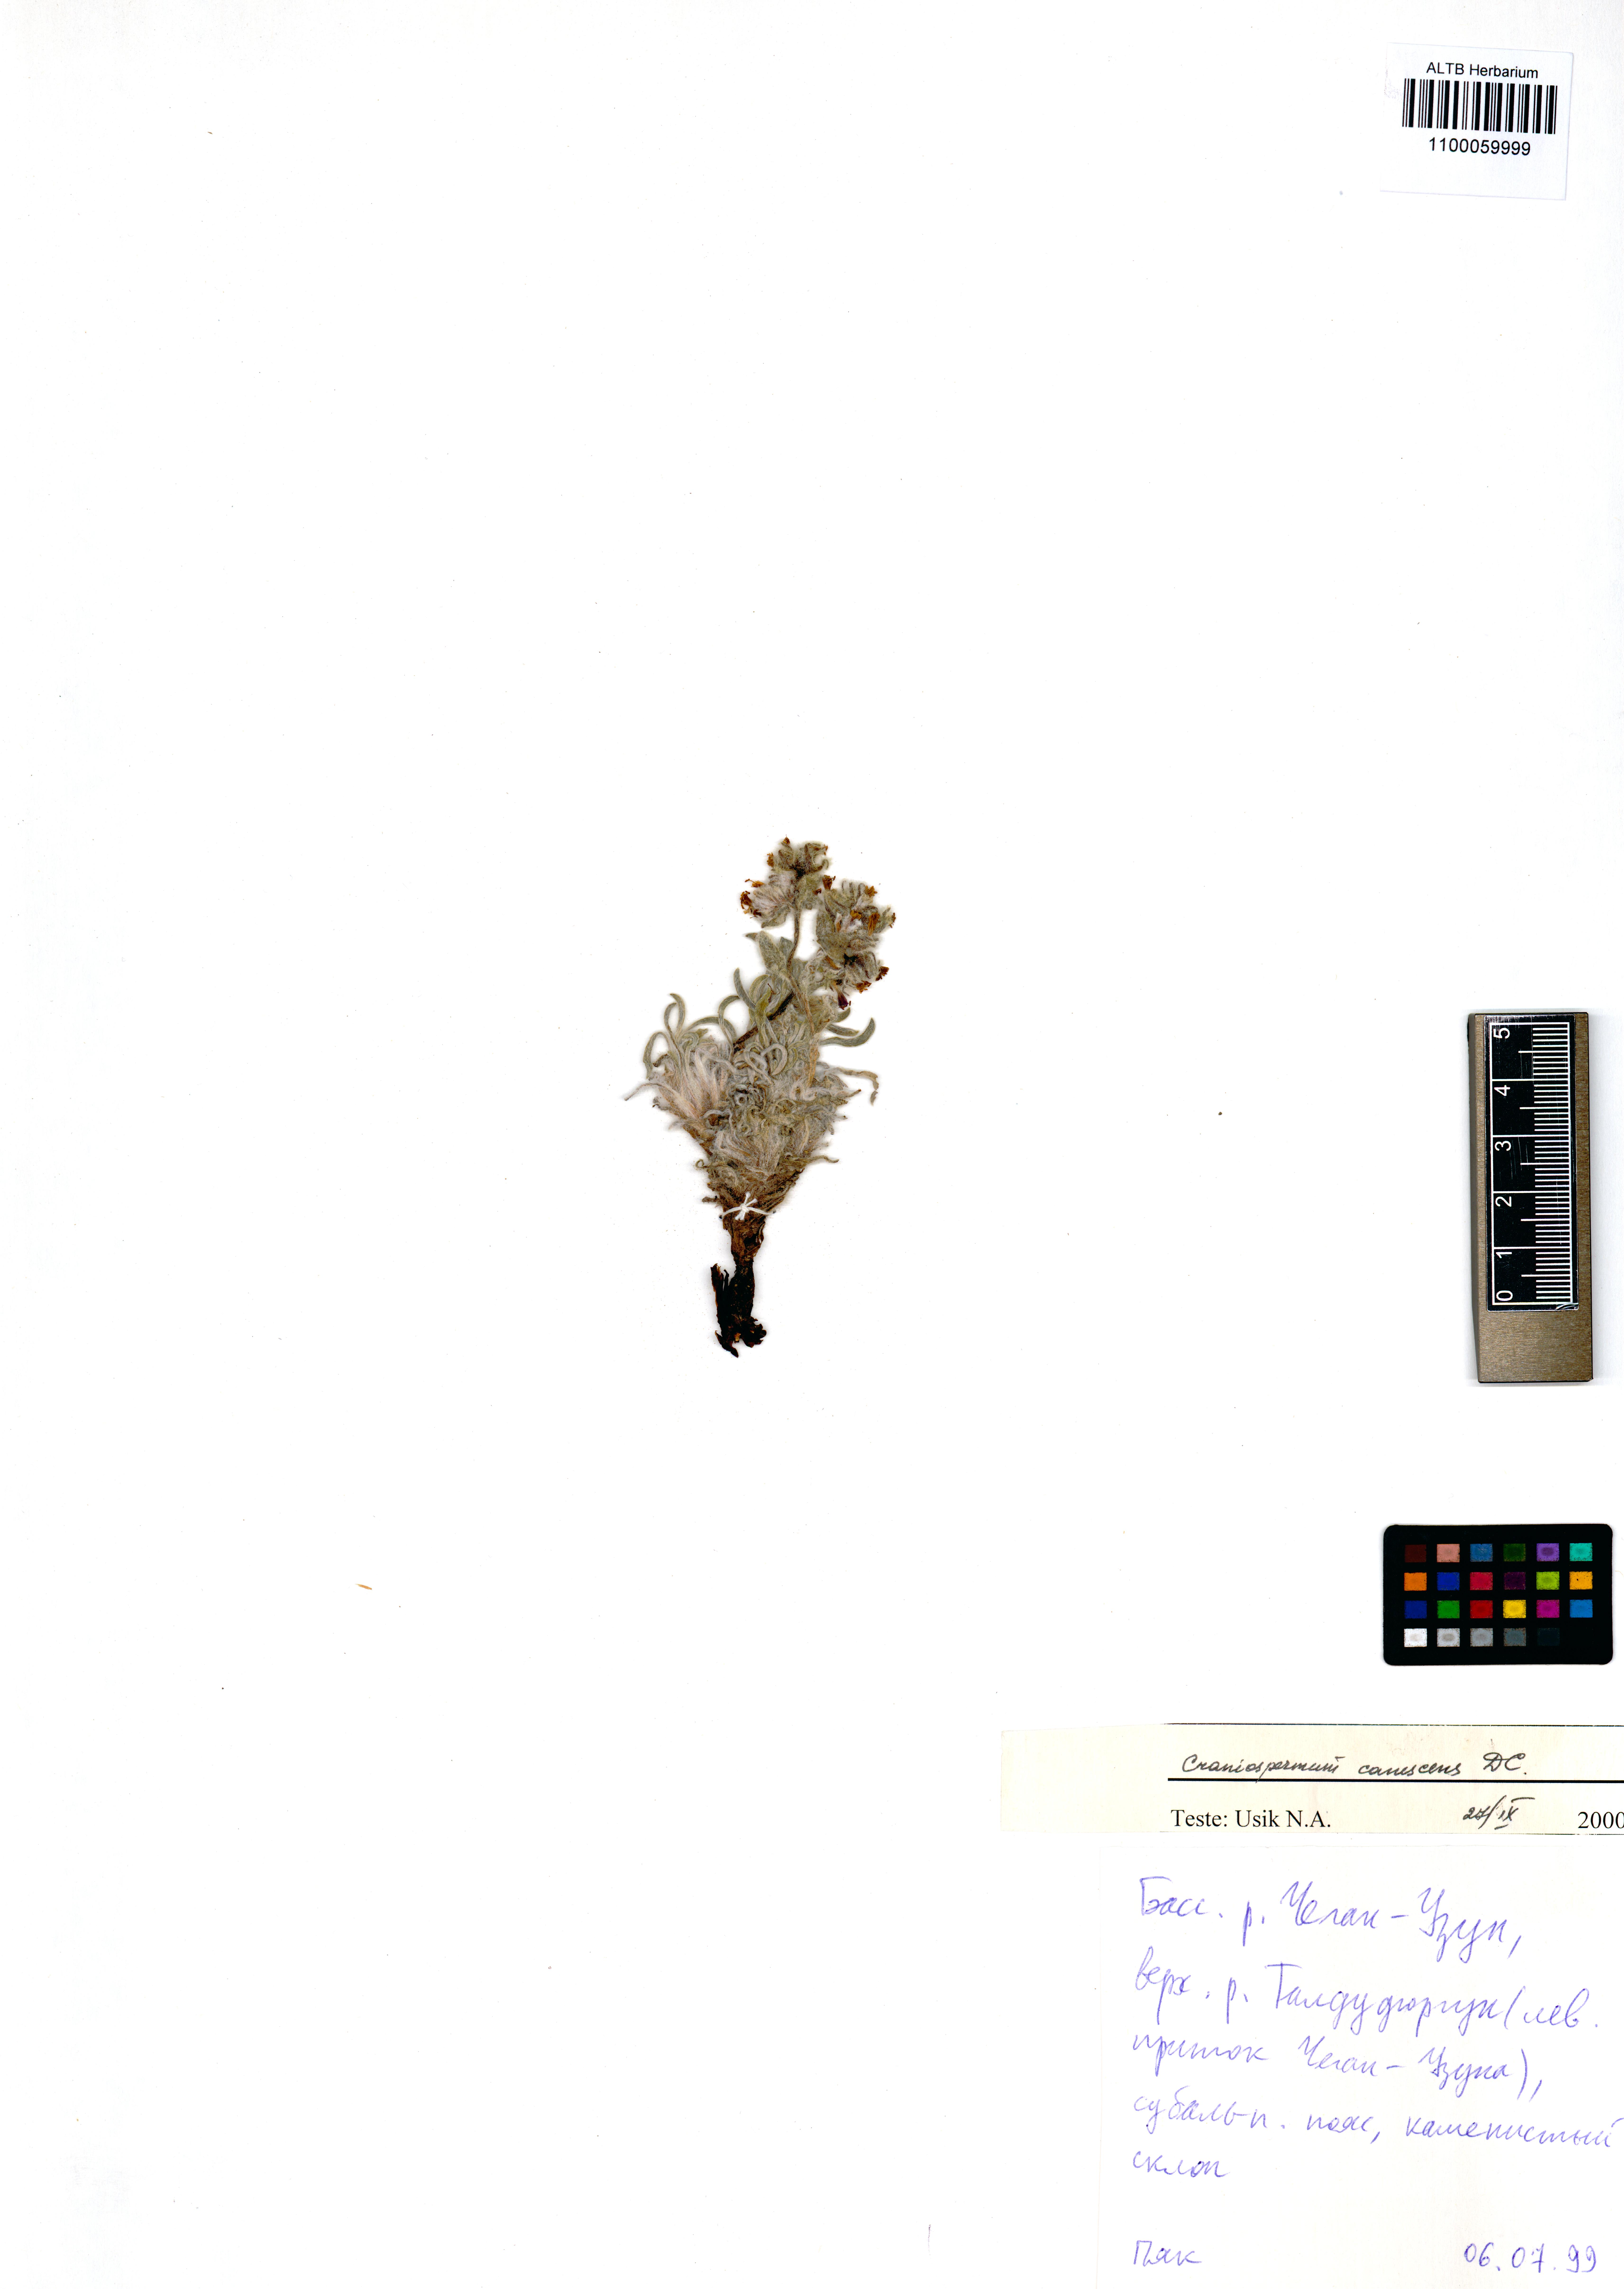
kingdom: Plantae
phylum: Tracheophyta
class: Magnoliopsida
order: Boraginales
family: Boraginaceae
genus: Craniospermum
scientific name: Craniospermum canescens
